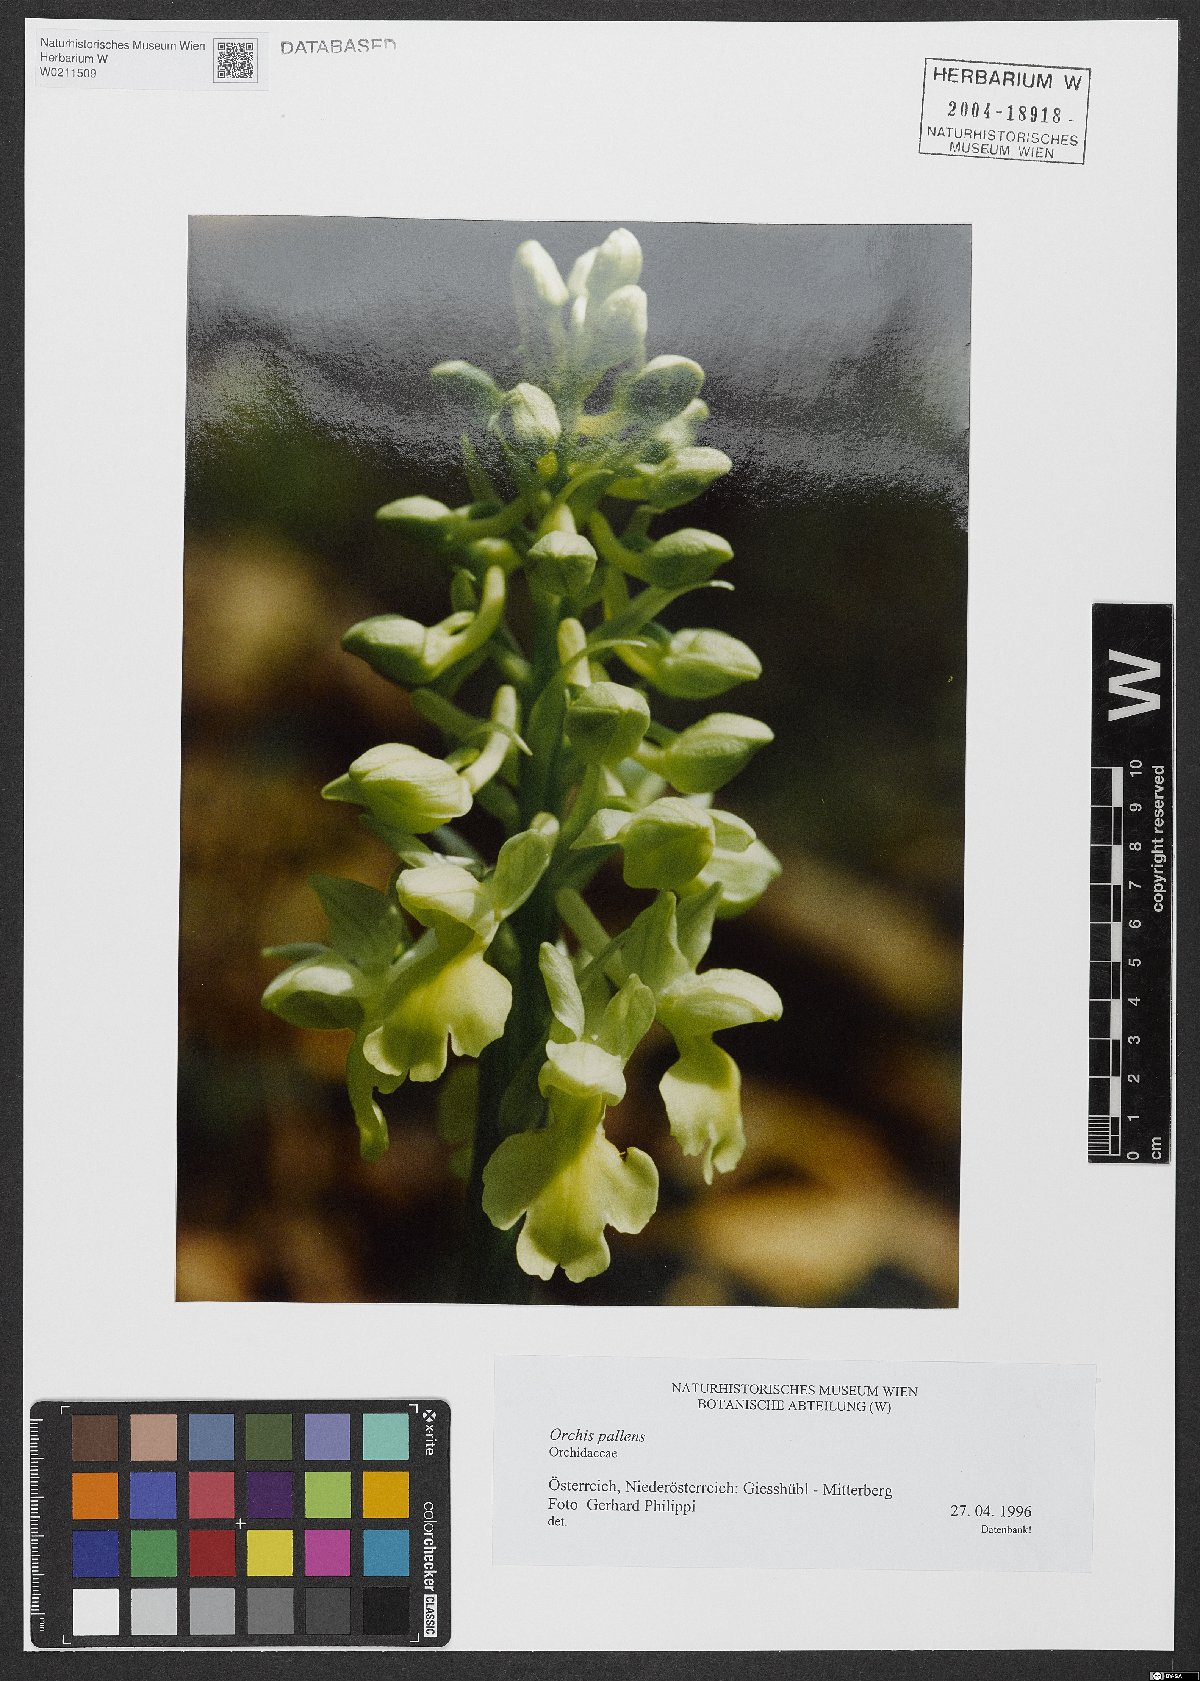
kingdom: Plantae
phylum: Tracheophyta
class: Liliopsida
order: Asparagales
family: Orchidaceae
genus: Orchis
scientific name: Orchis pallens
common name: Pale-flowered orchid
